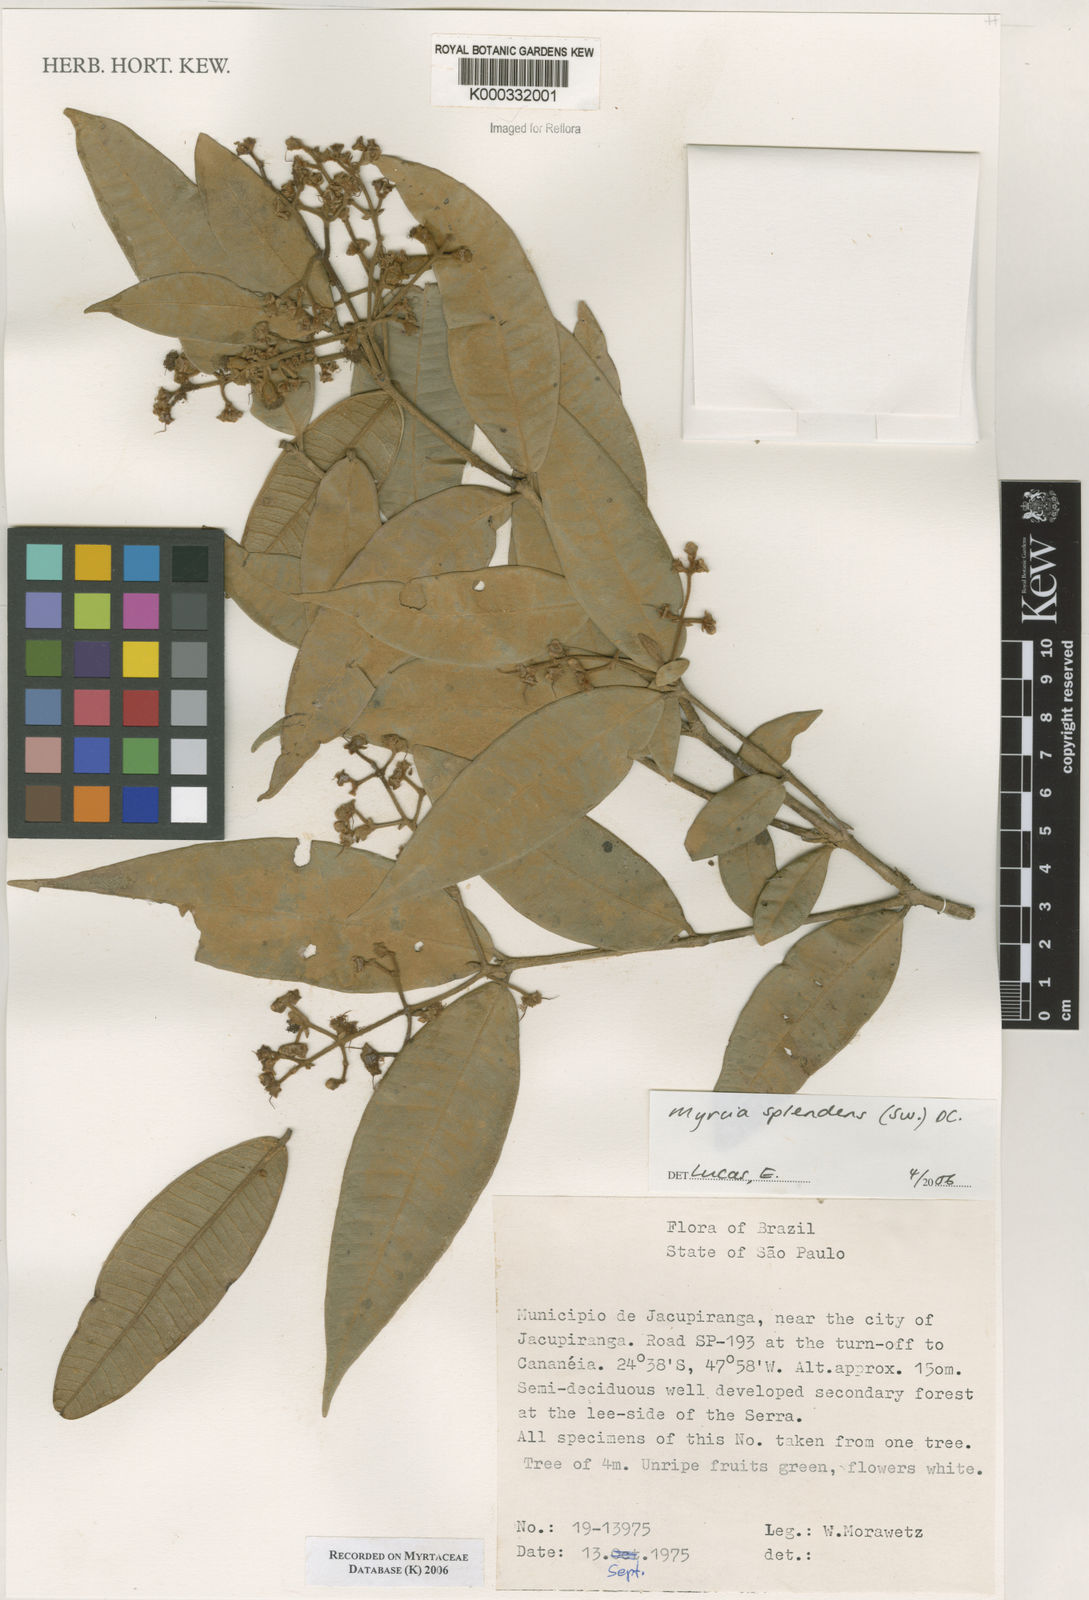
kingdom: Plantae
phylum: Tracheophyta
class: Magnoliopsida
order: Myrtales
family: Myrtaceae
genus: Myrcia
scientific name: Myrcia splendens
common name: Surinam cherry
